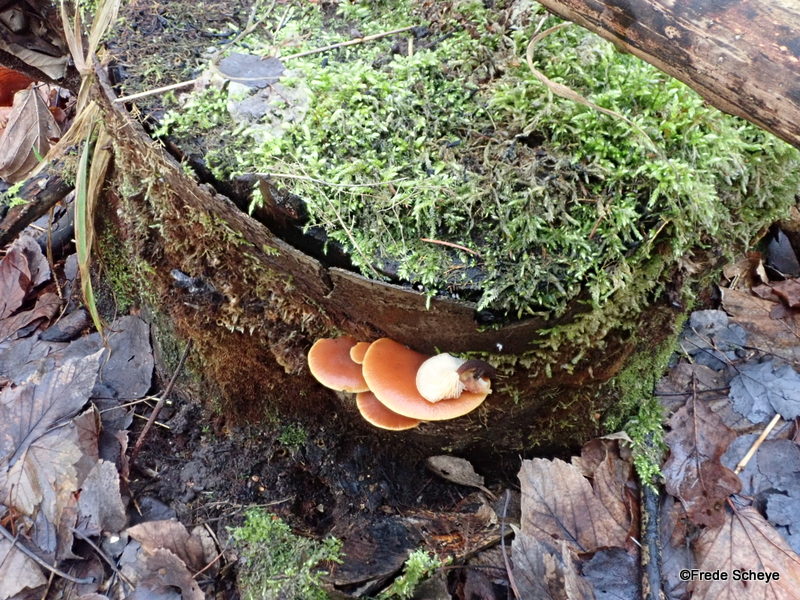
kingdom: Fungi
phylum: Basidiomycota
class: Agaricomycetes
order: Agaricales
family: Physalacriaceae
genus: Flammulina
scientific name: Flammulina velutipes
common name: gul fløjlsfod
